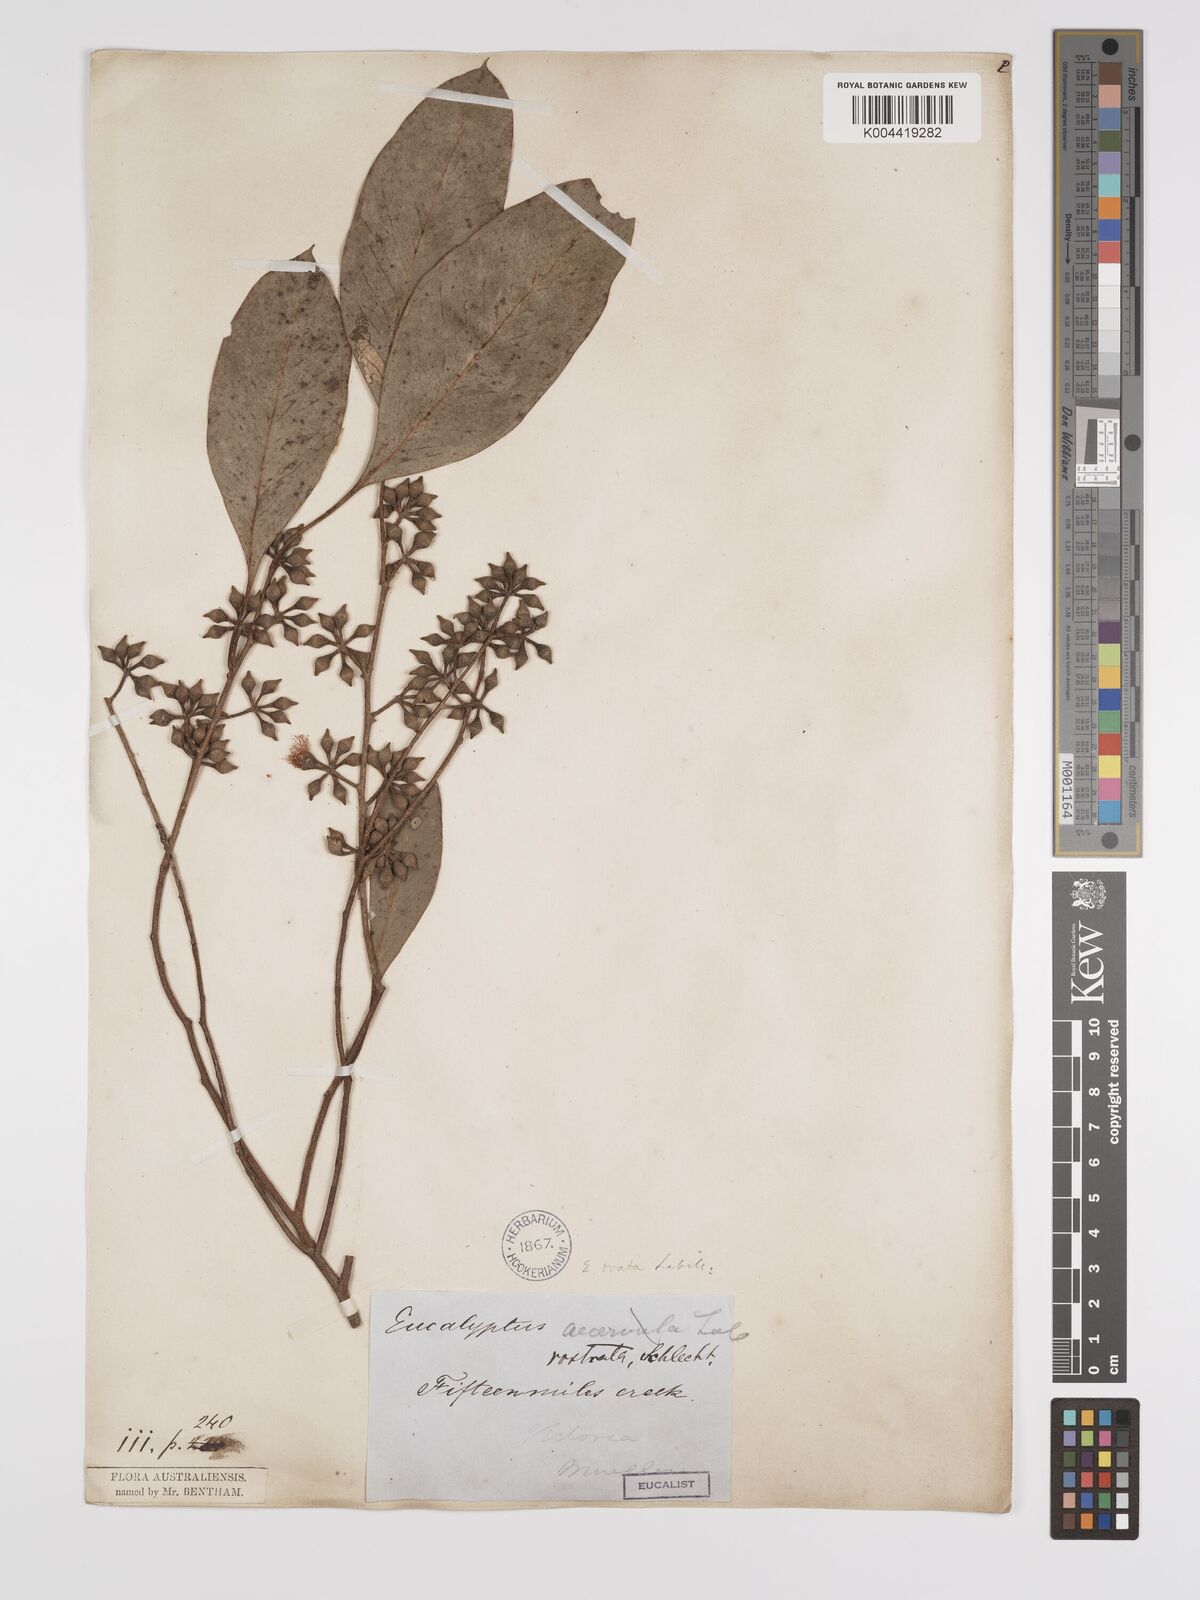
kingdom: Plantae
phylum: Tracheophyta
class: Magnoliopsida
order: Myrtales
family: Myrtaceae
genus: Eucalyptus
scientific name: Eucalyptus ovata
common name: Black-gum
